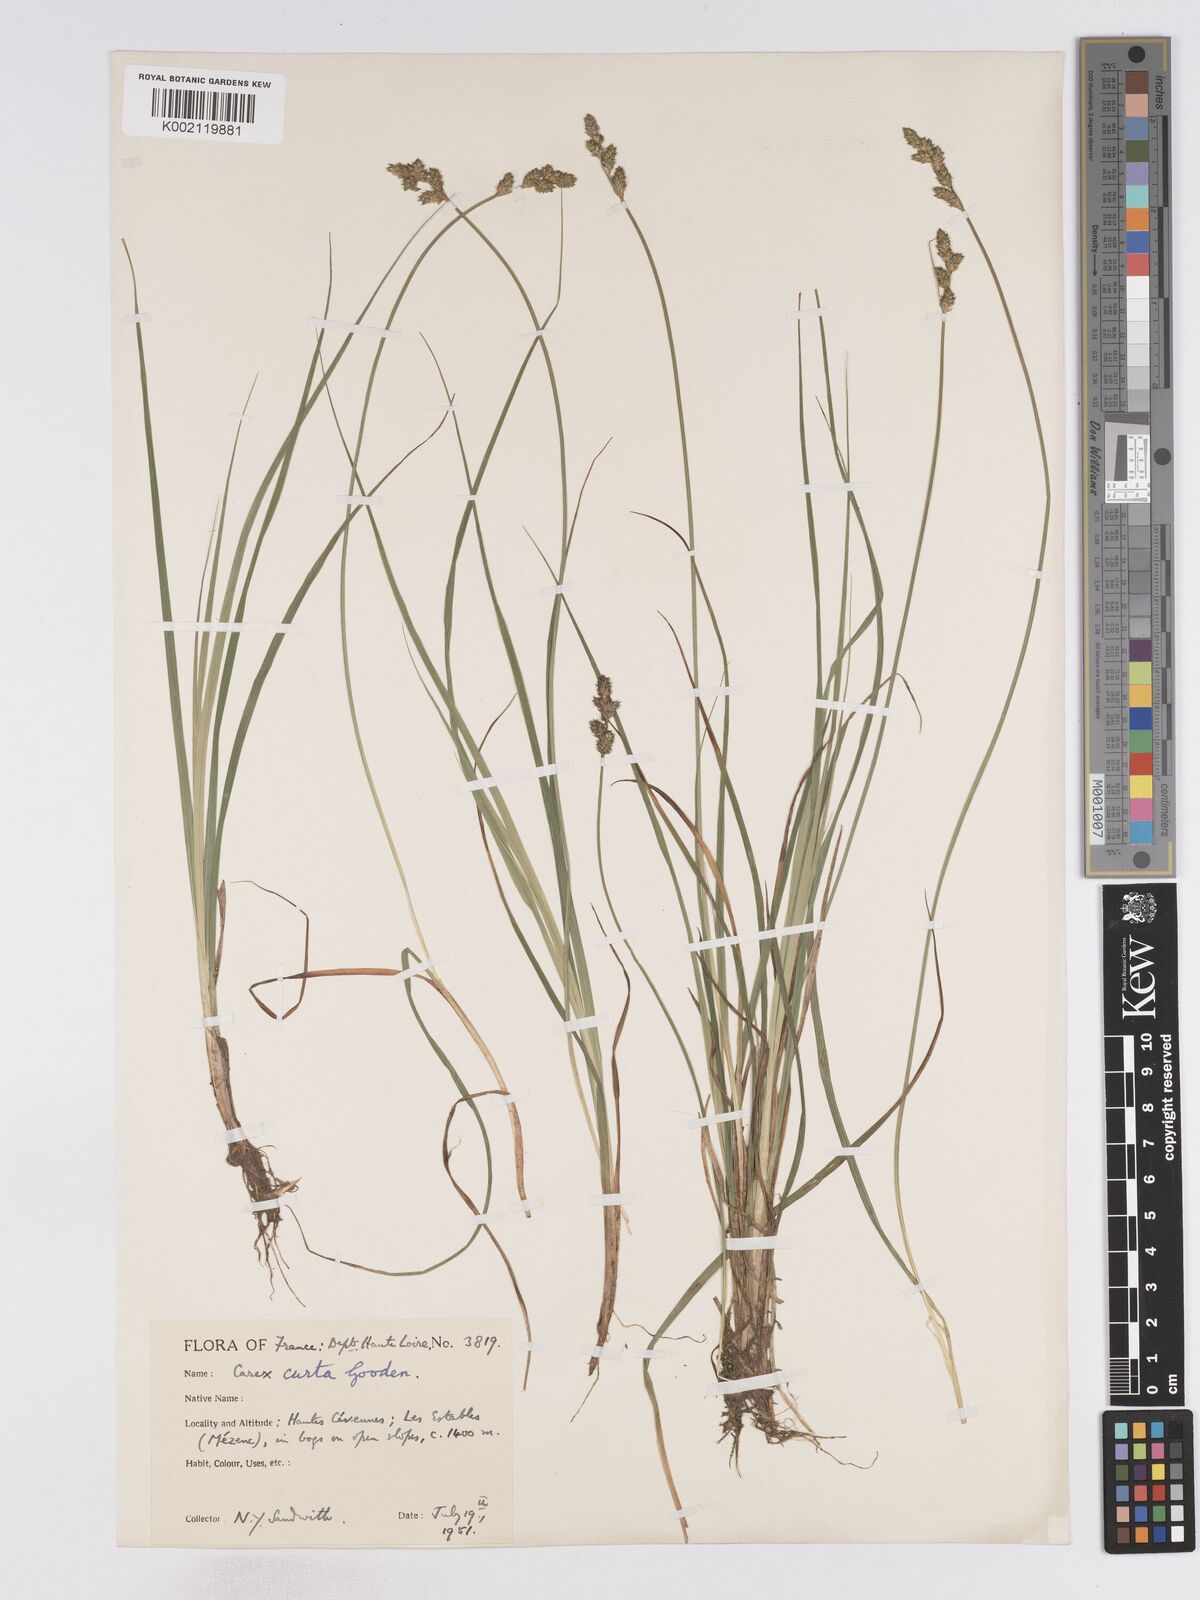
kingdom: Plantae
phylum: Tracheophyta
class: Liliopsida
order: Poales
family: Cyperaceae
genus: Carex
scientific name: Carex curta
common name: White sedge
